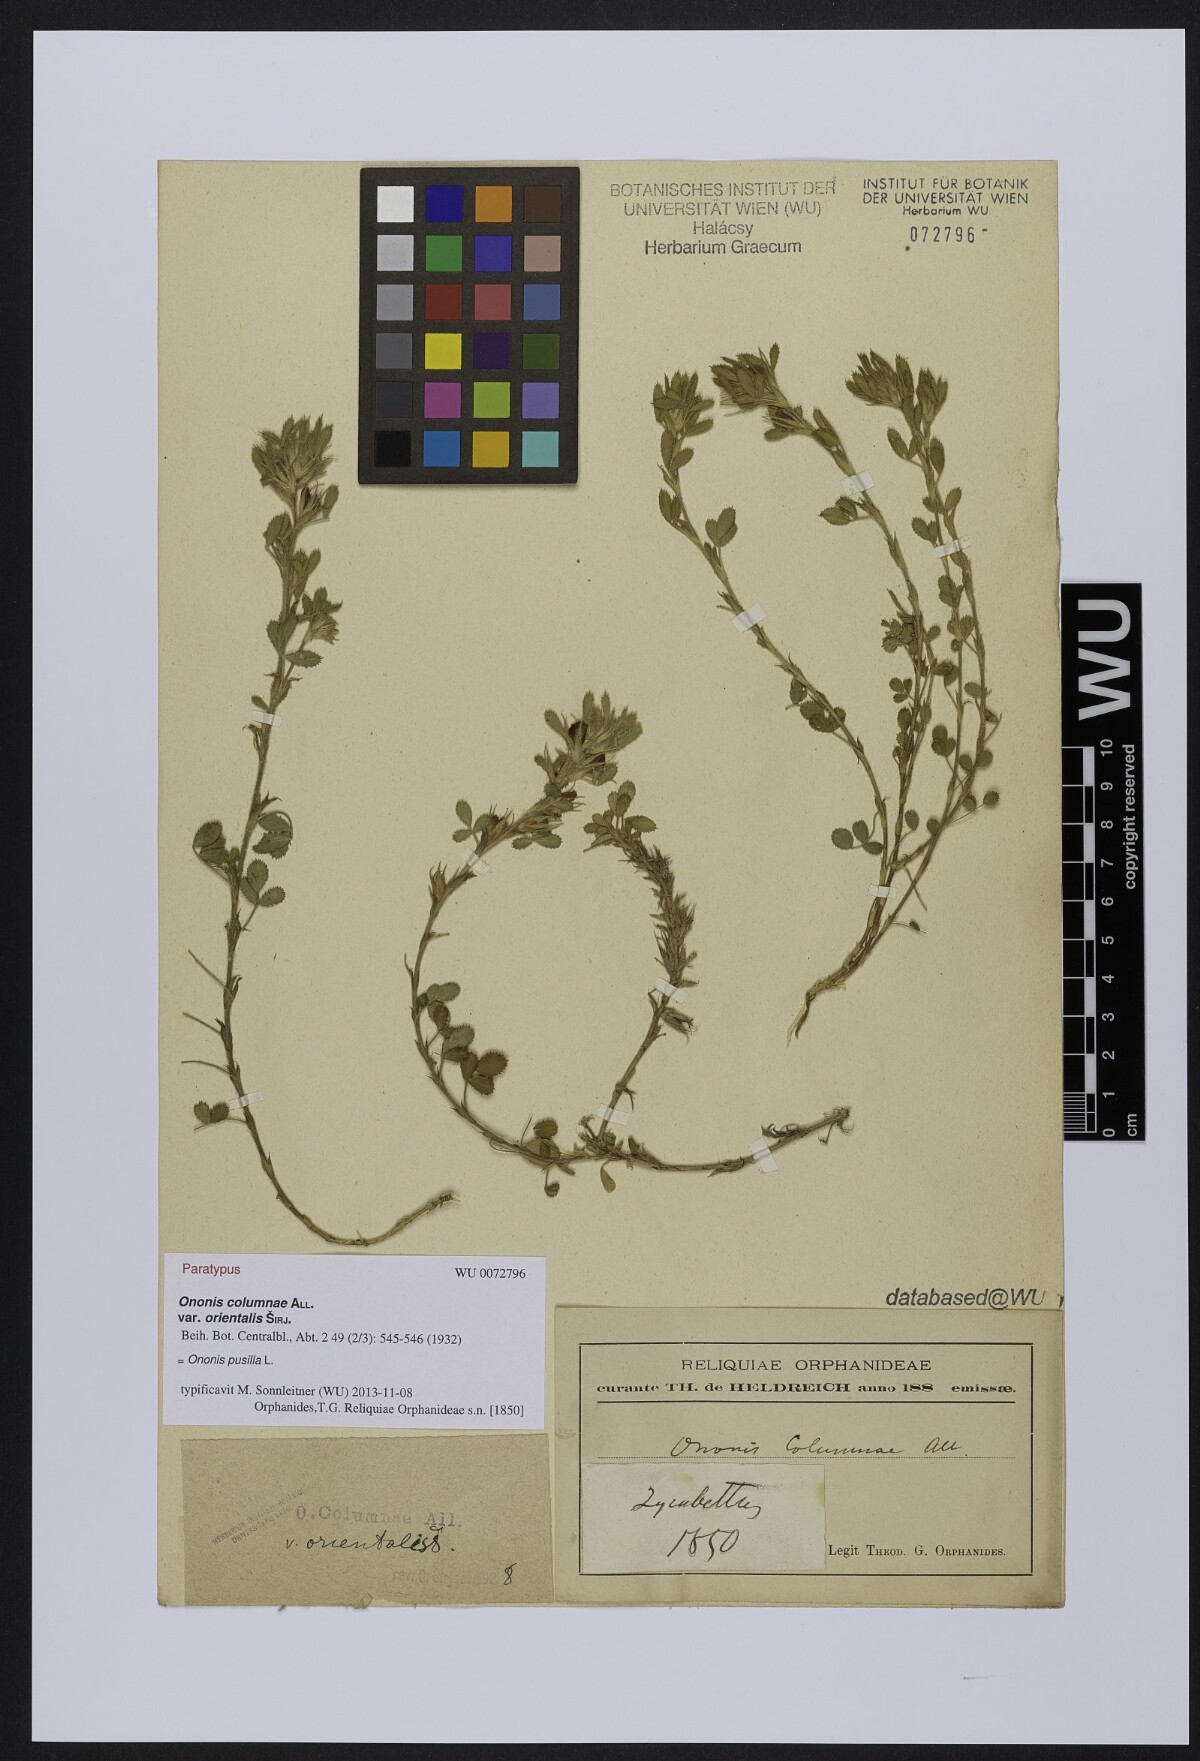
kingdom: Plantae
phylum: Tracheophyta
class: Magnoliopsida
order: Fabales
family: Fabaceae
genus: Ononis
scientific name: Ononis pusilla
